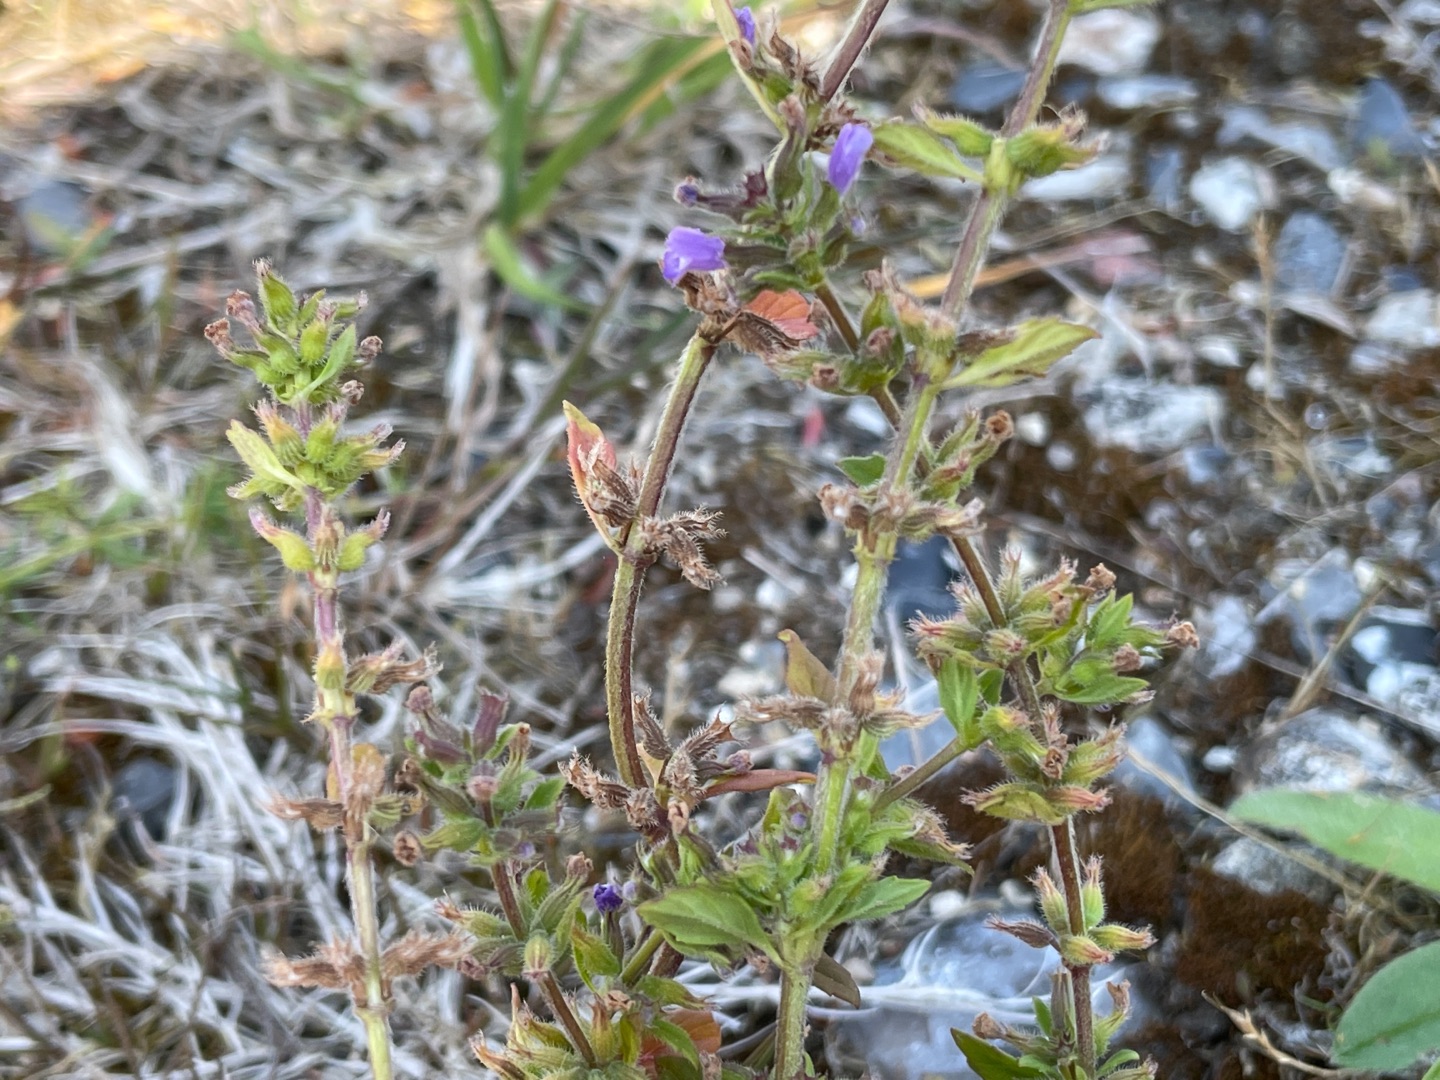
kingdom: Plantae
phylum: Tracheophyta
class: Magnoliopsida
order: Lamiales
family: Lamiaceae
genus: Clinopodium
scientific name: Clinopodium acinos
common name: Voldtimian
